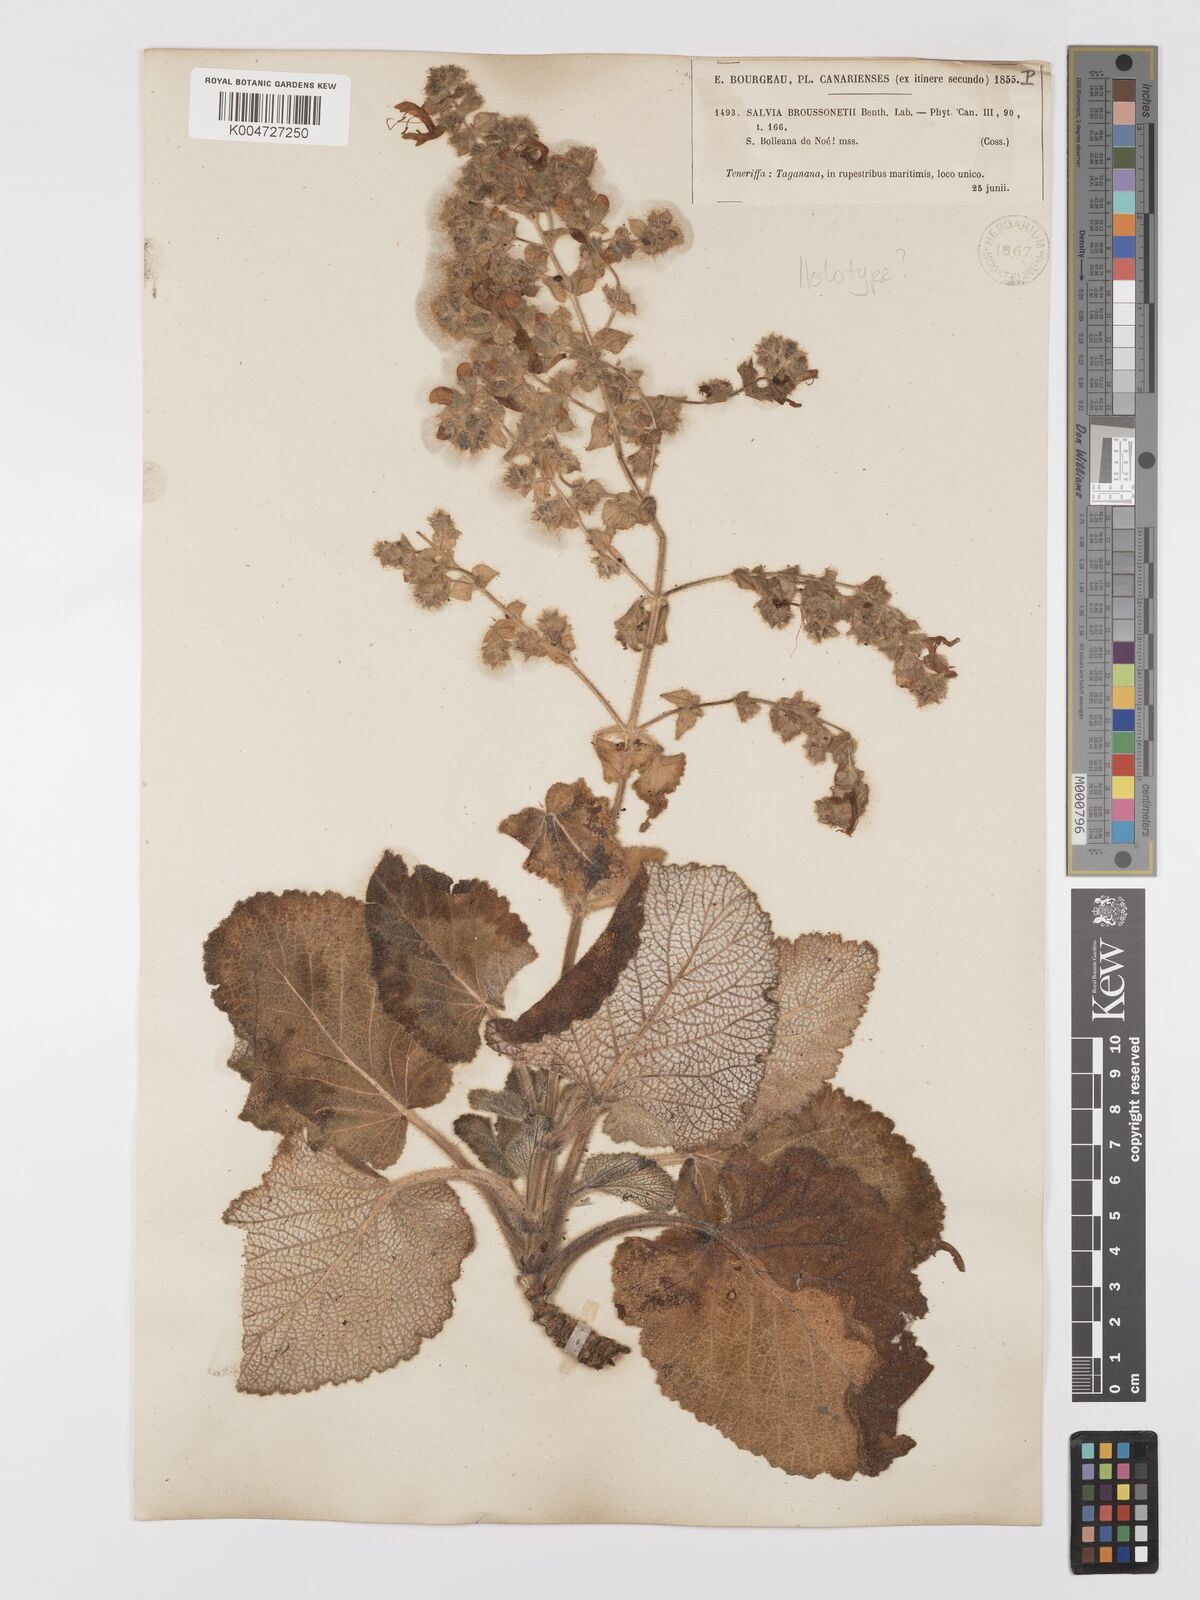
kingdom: Plantae
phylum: Tracheophyta
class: Magnoliopsida
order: Lamiales
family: Lamiaceae
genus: Salvia
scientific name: Salvia
